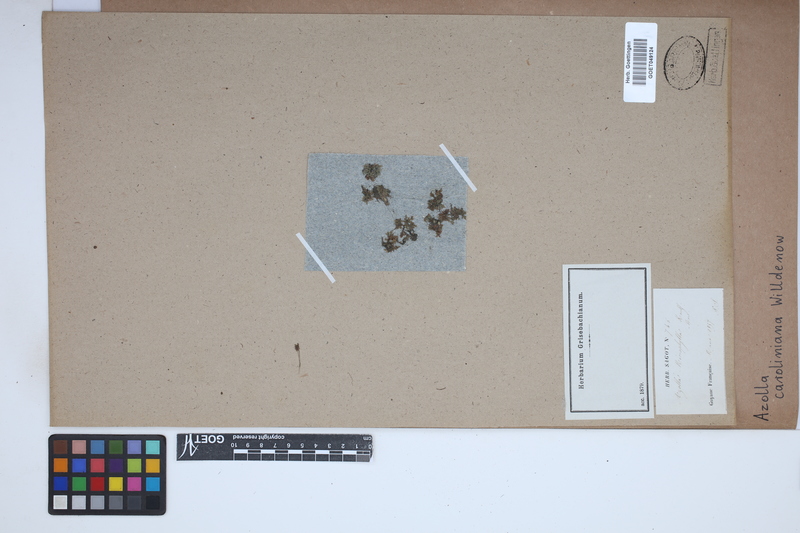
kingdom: Plantae
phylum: Tracheophyta
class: Polypodiopsida
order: Salviniales
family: Salviniaceae
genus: Azolla
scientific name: Azolla caroliniana
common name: Carolina mosquitofern
